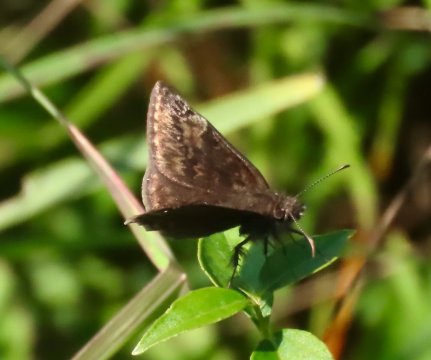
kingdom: Animalia
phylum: Arthropoda
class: Insecta
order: Lepidoptera
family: Hesperiidae
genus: Gesta
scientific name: Gesta
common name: Wild Indigo Duskywing
